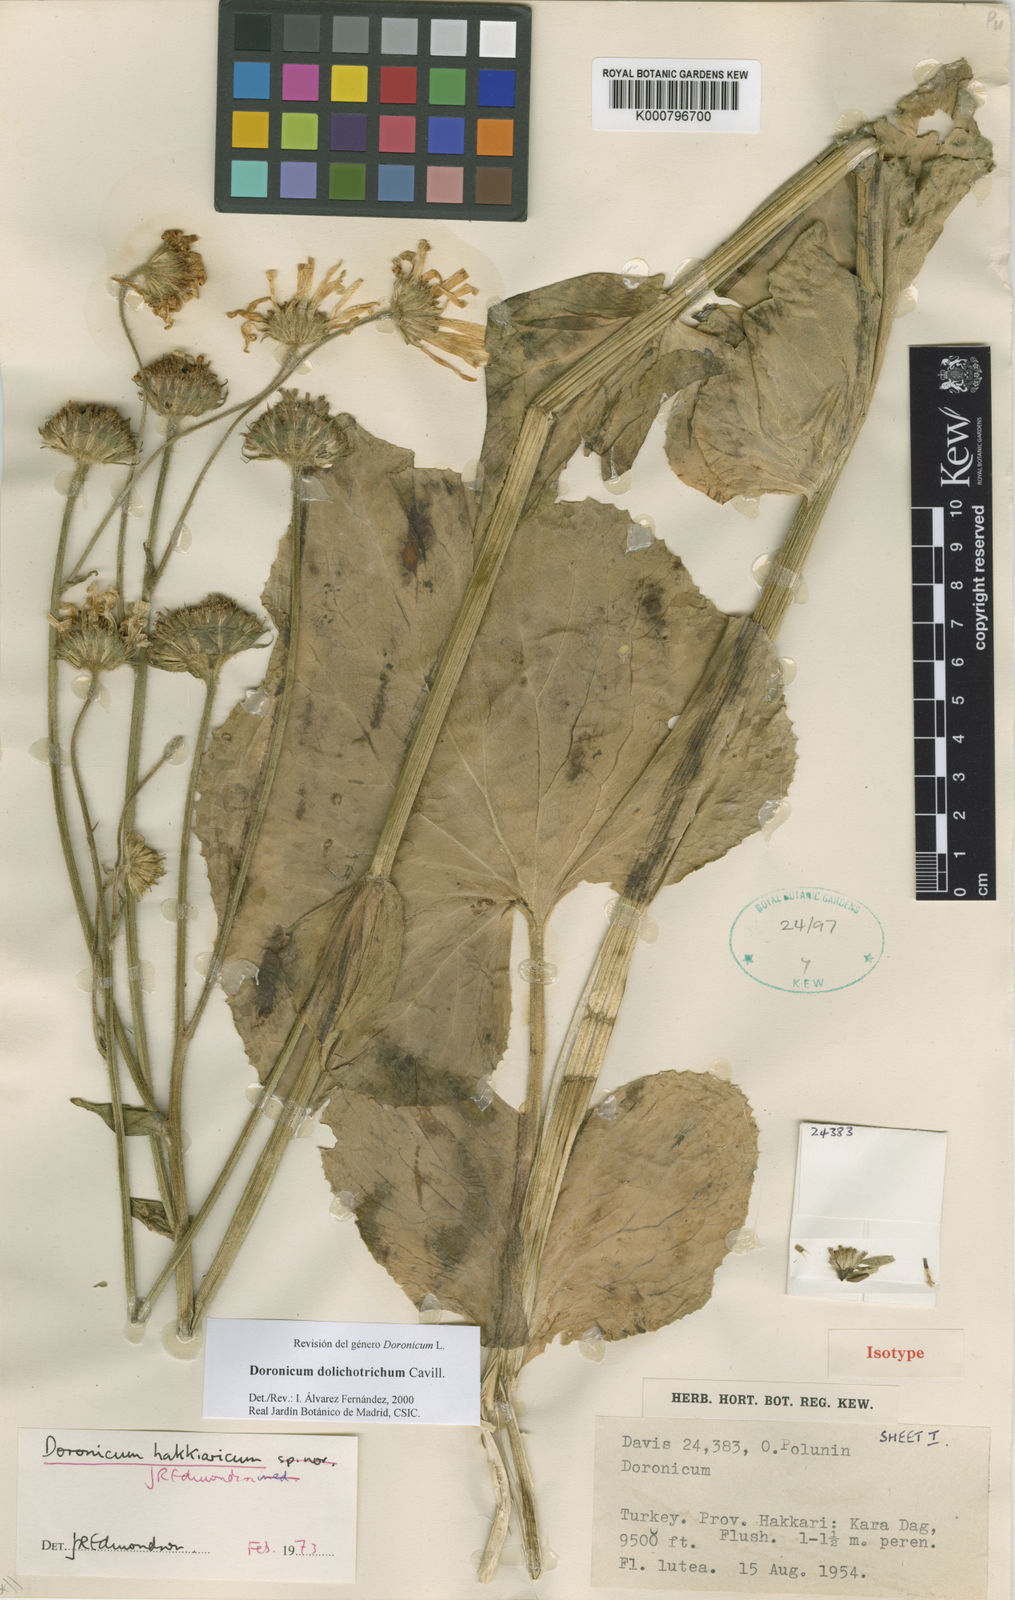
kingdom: Plantae
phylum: Tracheophyta
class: Magnoliopsida
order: Asterales
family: Asteraceae
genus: Doronicum
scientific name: Doronicum dolichotrichum
